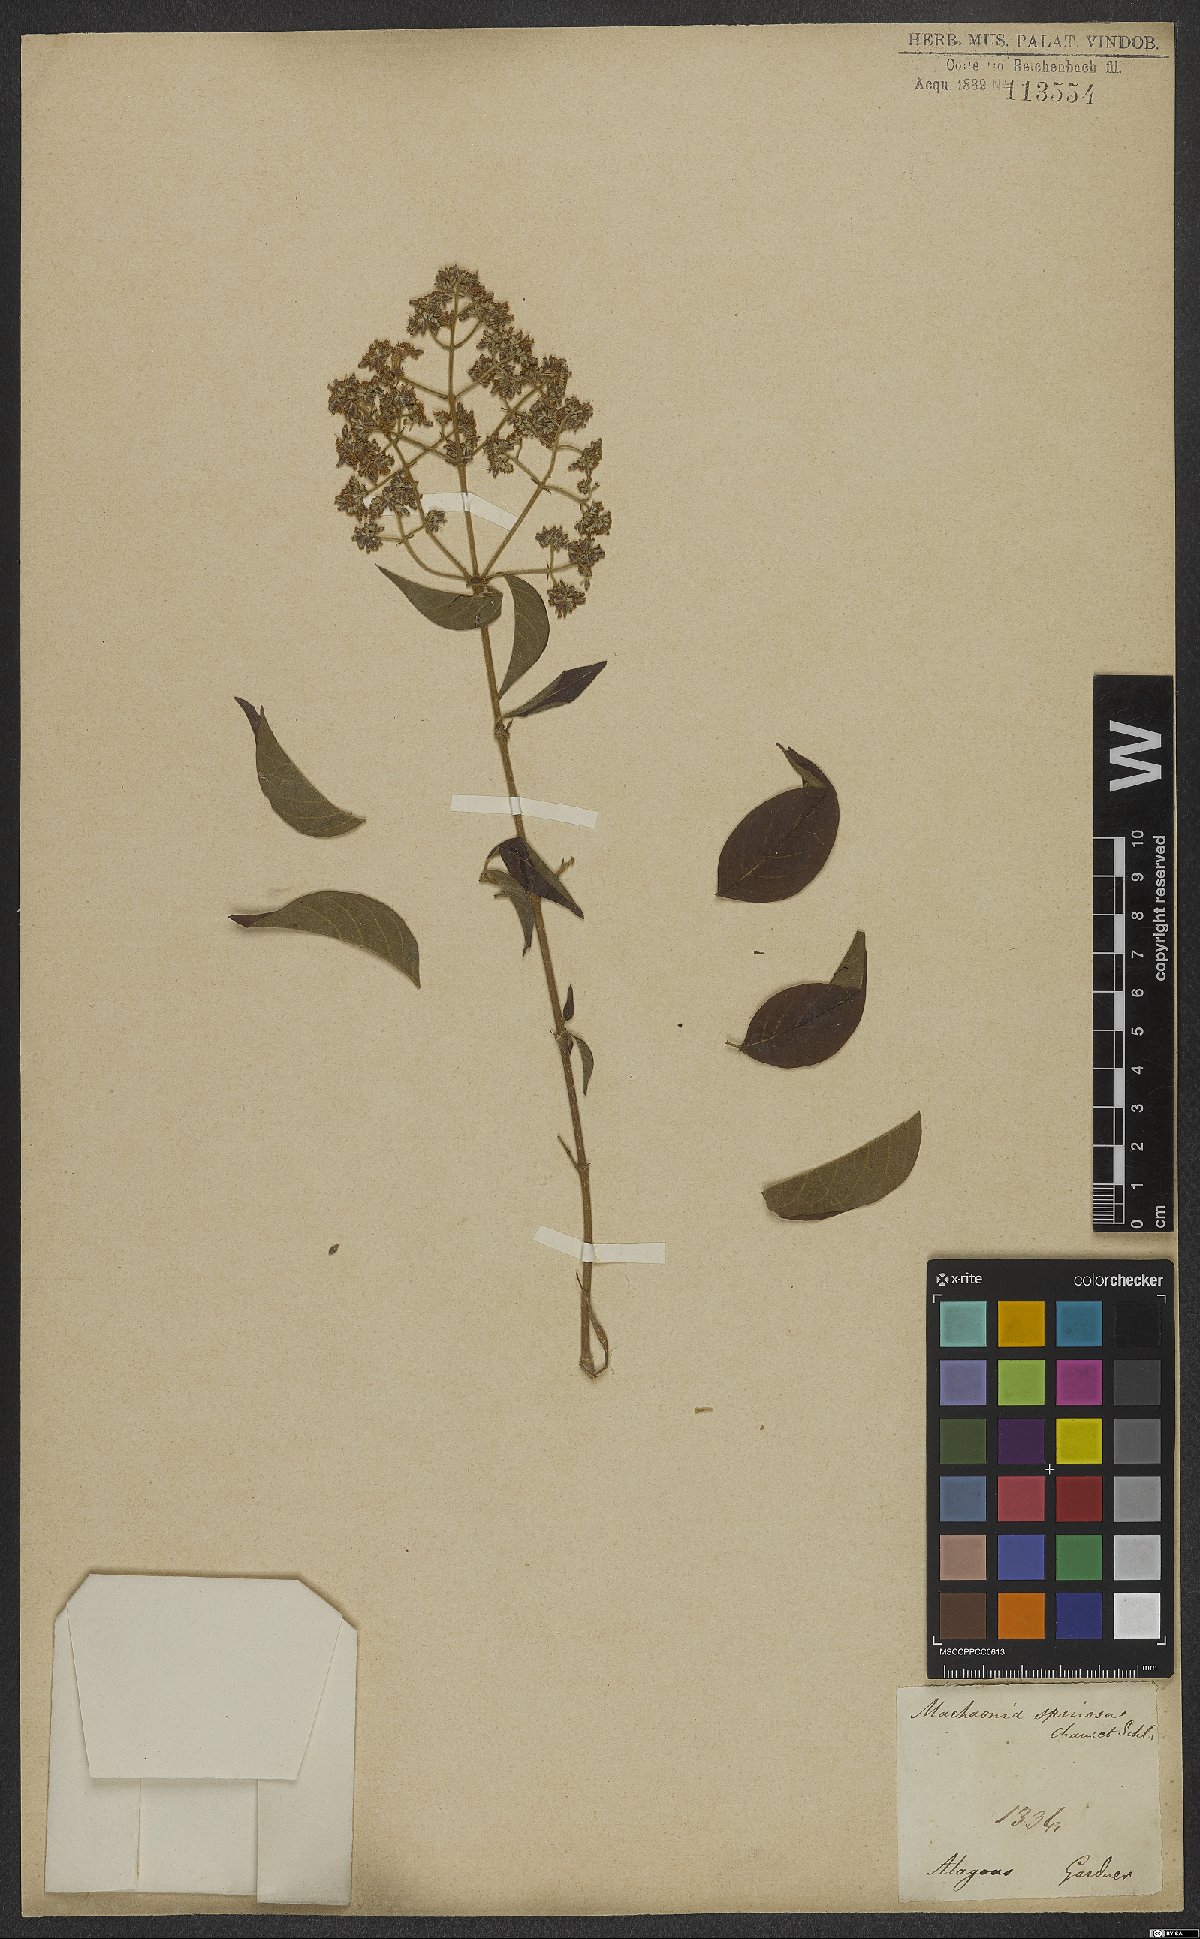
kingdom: Plantae
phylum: Tracheophyta
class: Magnoliopsida
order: Gentianales
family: Rubiaceae
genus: Machaonia
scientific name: Machaonia brasiliensis
